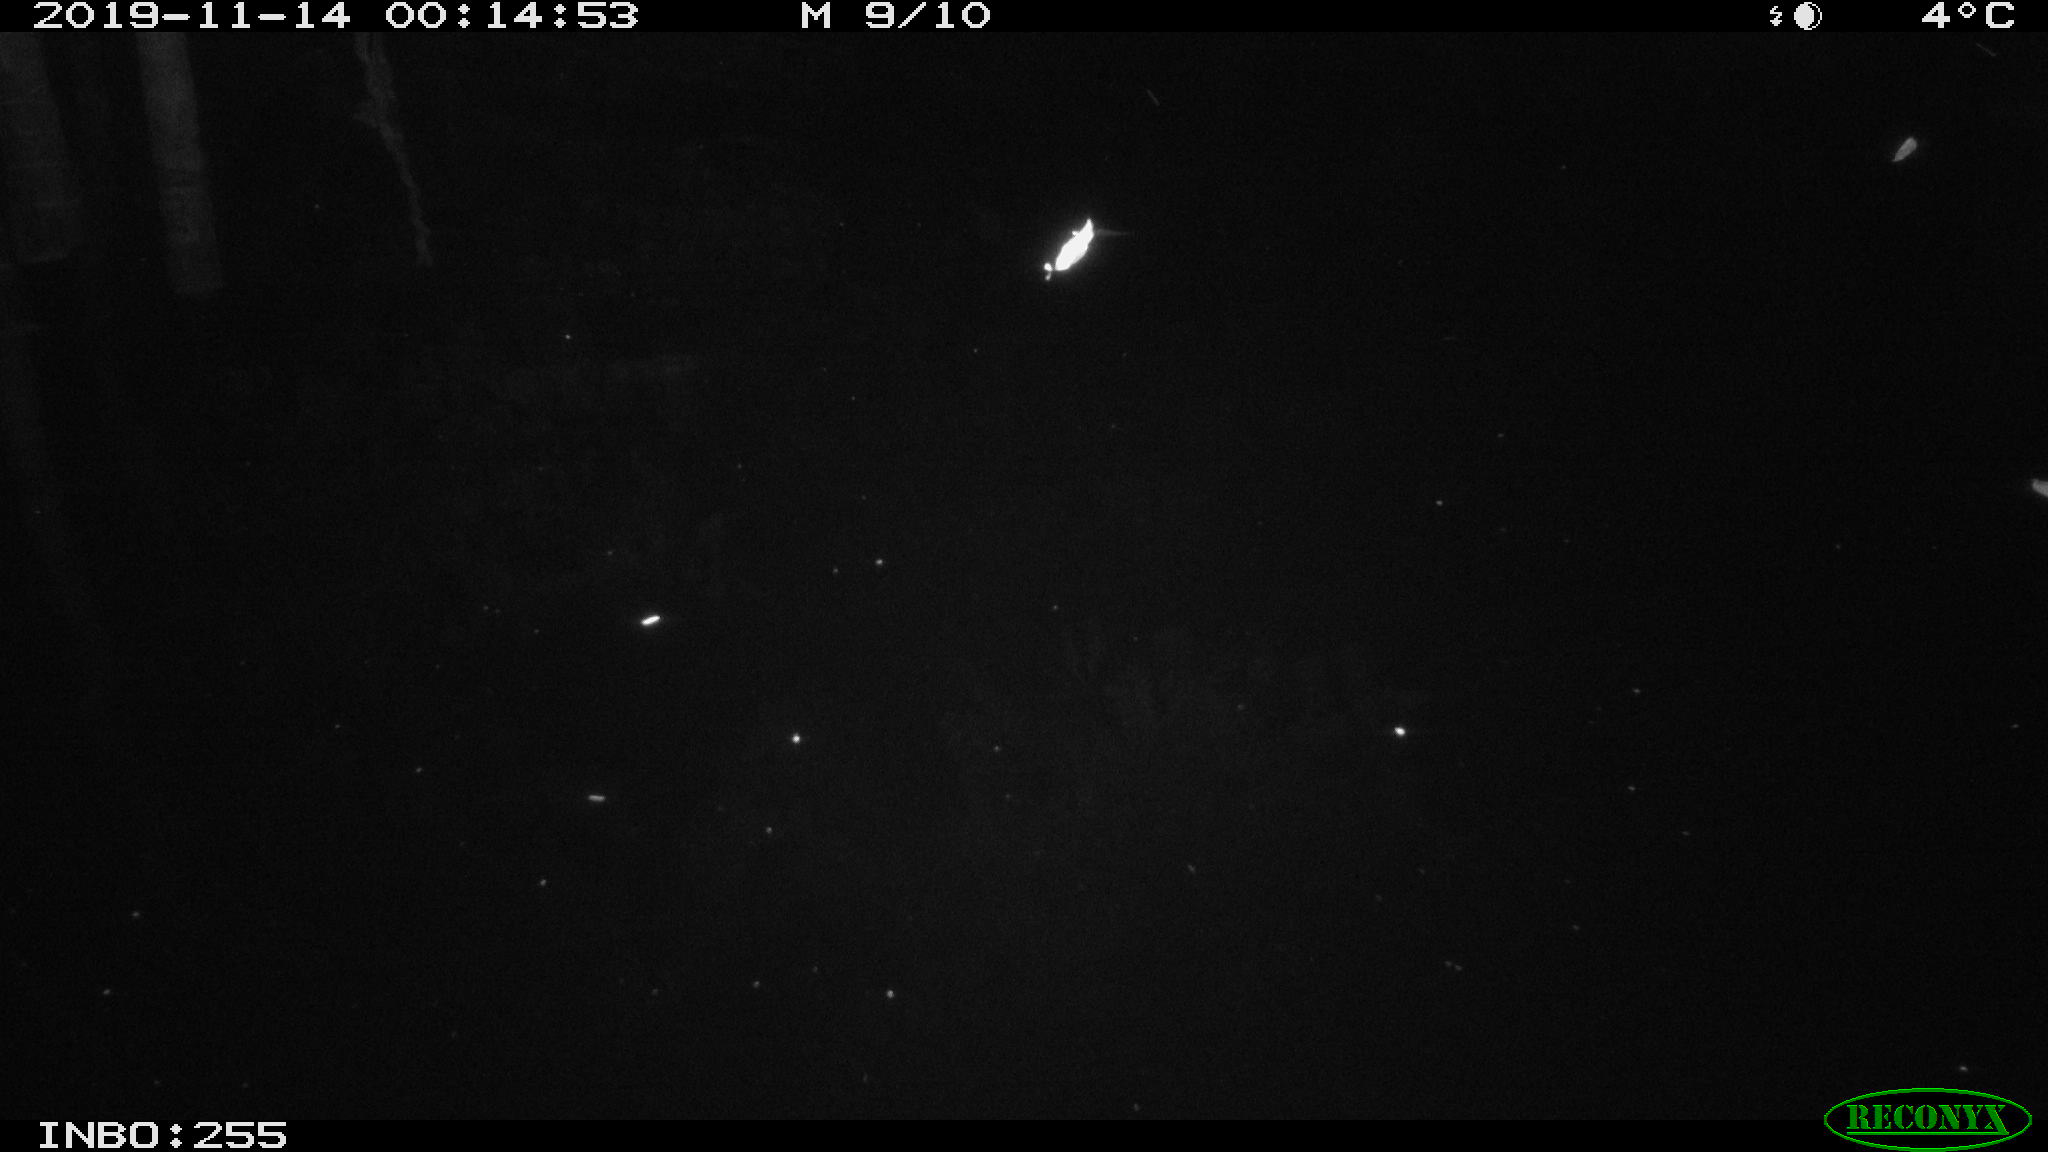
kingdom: Animalia
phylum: Chordata
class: Mammalia
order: Rodentia
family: Muridae
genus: Rattus
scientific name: Rattus norvegicus
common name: Brown rat
